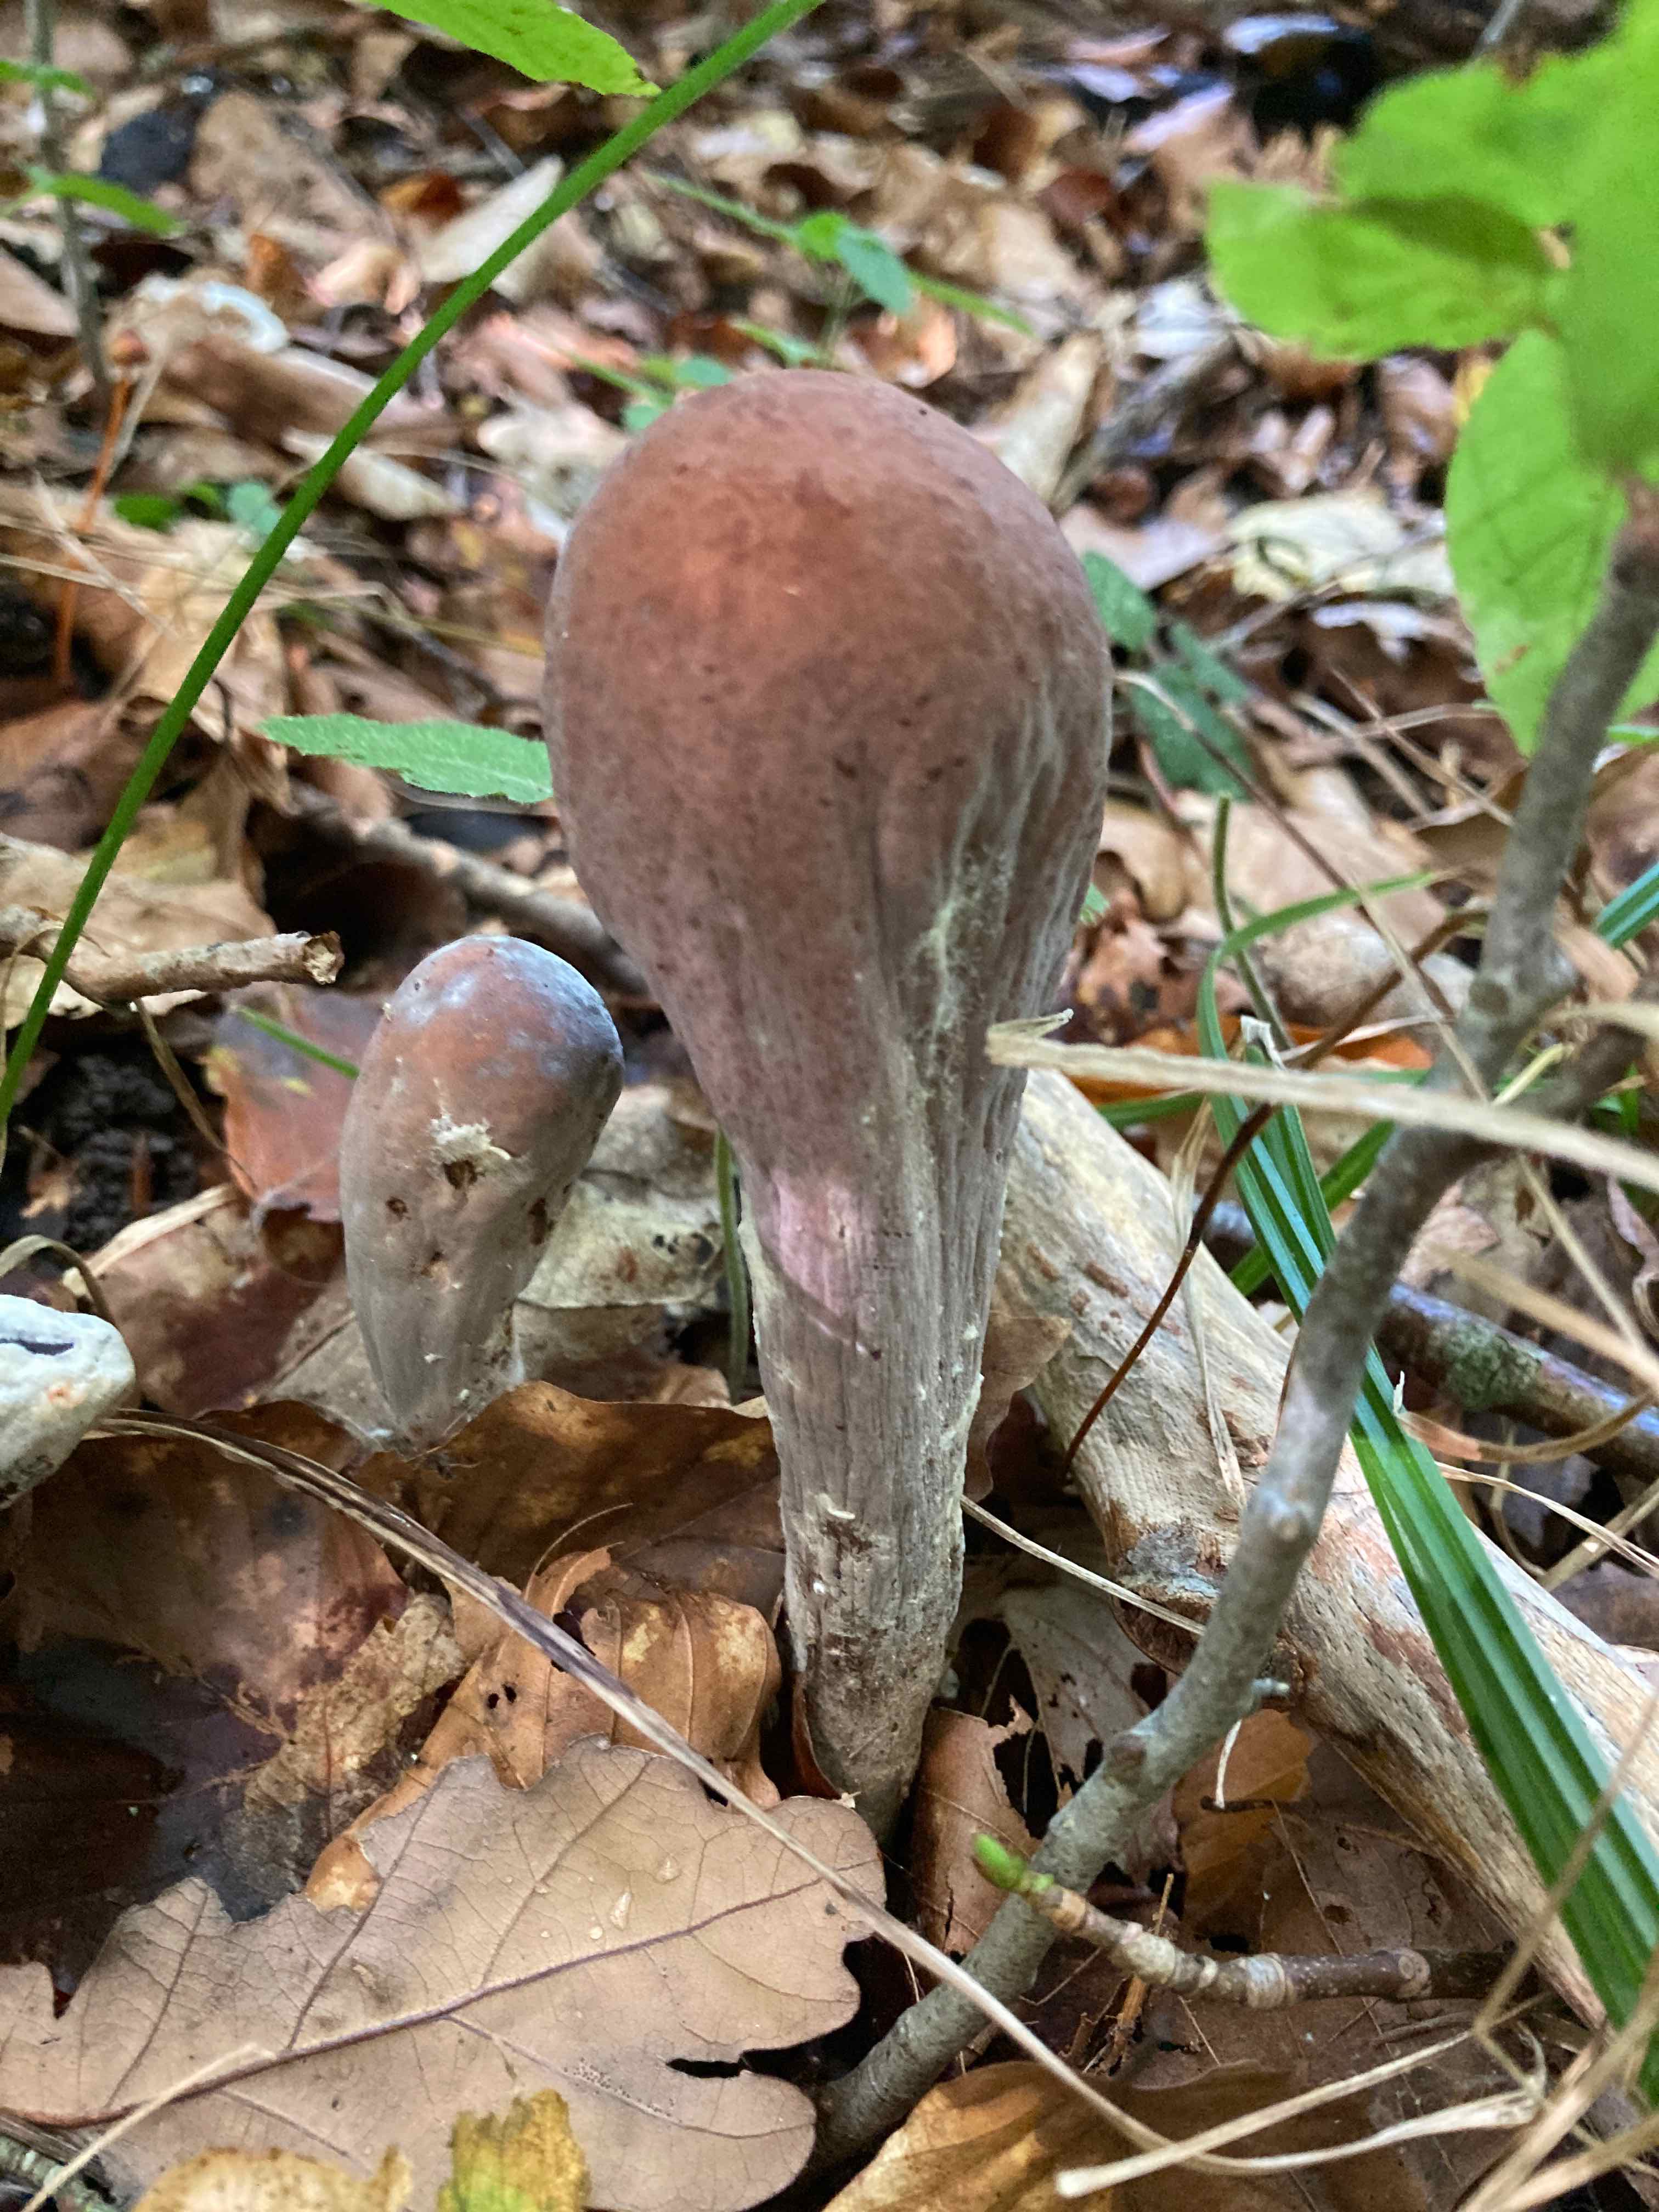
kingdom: Fungi
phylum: Basidiomycota
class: Agaricomycetes
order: Gomphales
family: Clavariadelphaceae
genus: Clavariadelphus
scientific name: Clavariadelphus pistillaris
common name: herkules-kæmpekølle
